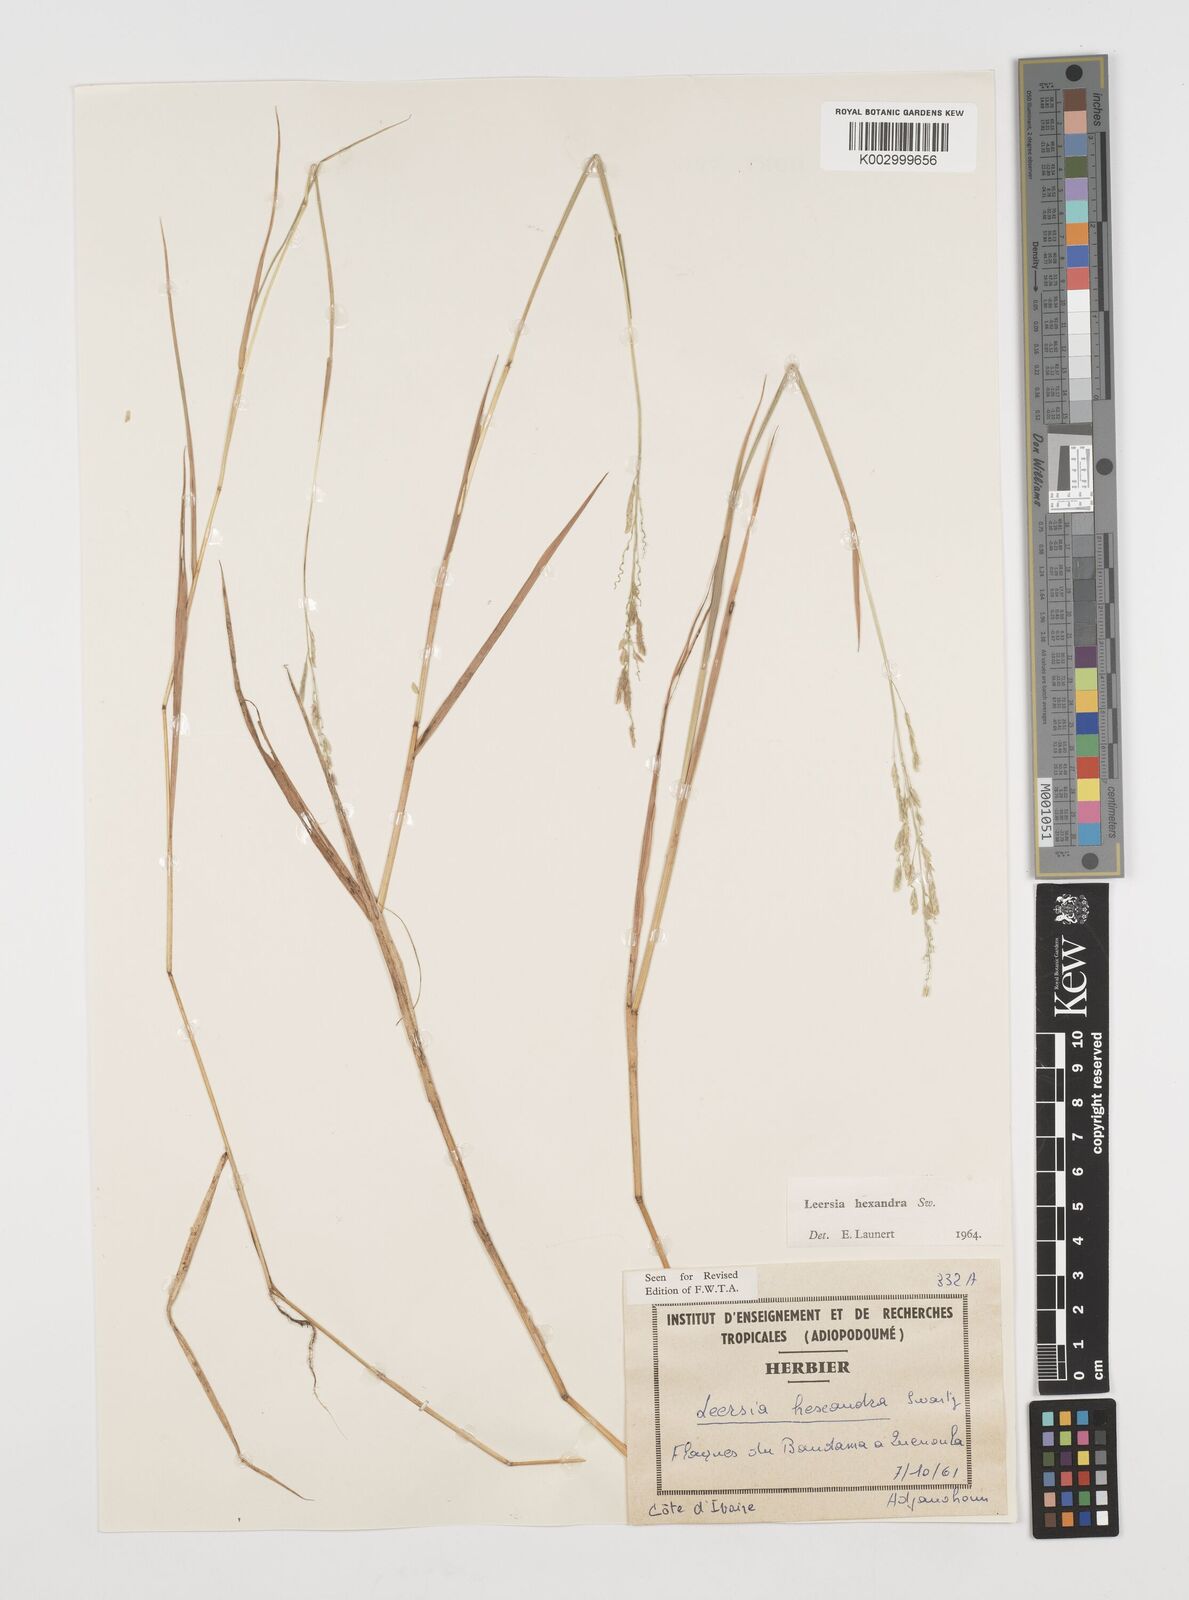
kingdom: Plantae
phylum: Tracheophyta
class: Liliopsida
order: Poales
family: Poaceae
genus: Leersia
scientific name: Leersia hexandra
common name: Southern cut grass
